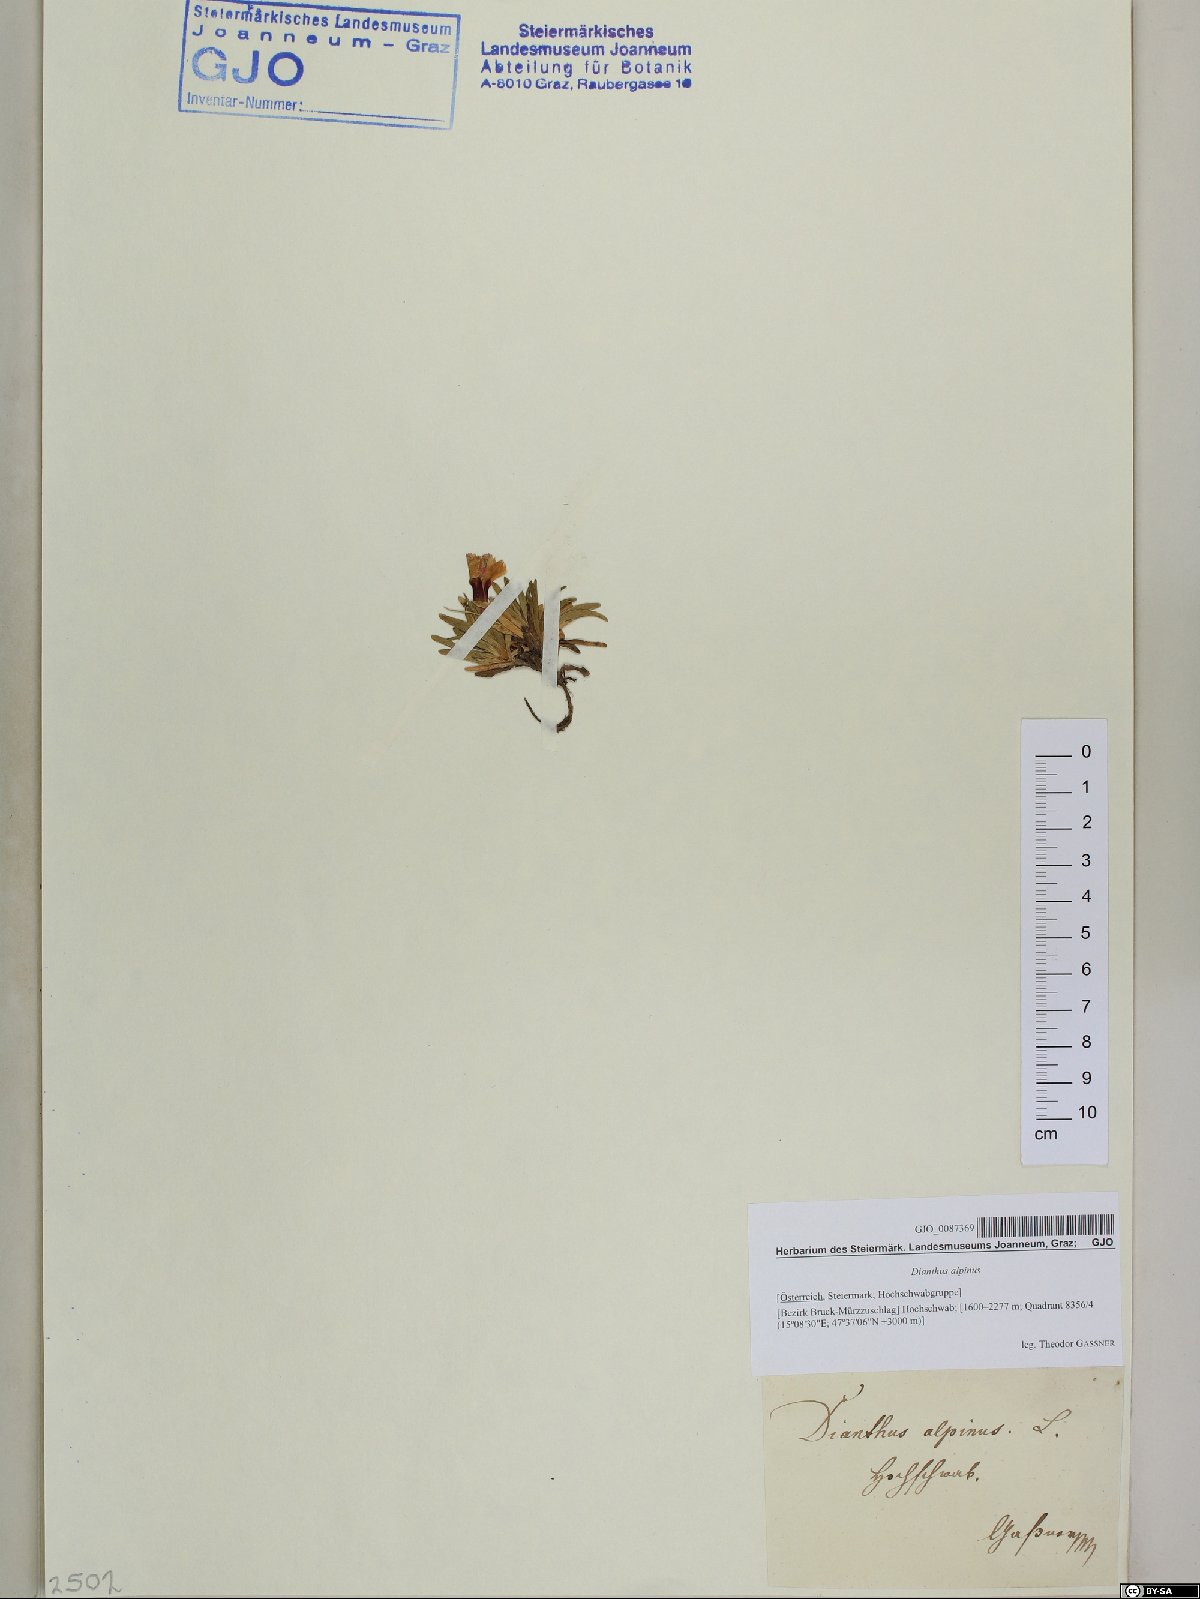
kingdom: Plantae
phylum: Tracheophyta
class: Magnoliopsida
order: Caryophyllales
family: Caryophyllaceae
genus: Dianthus
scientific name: Dianthus alpinus
